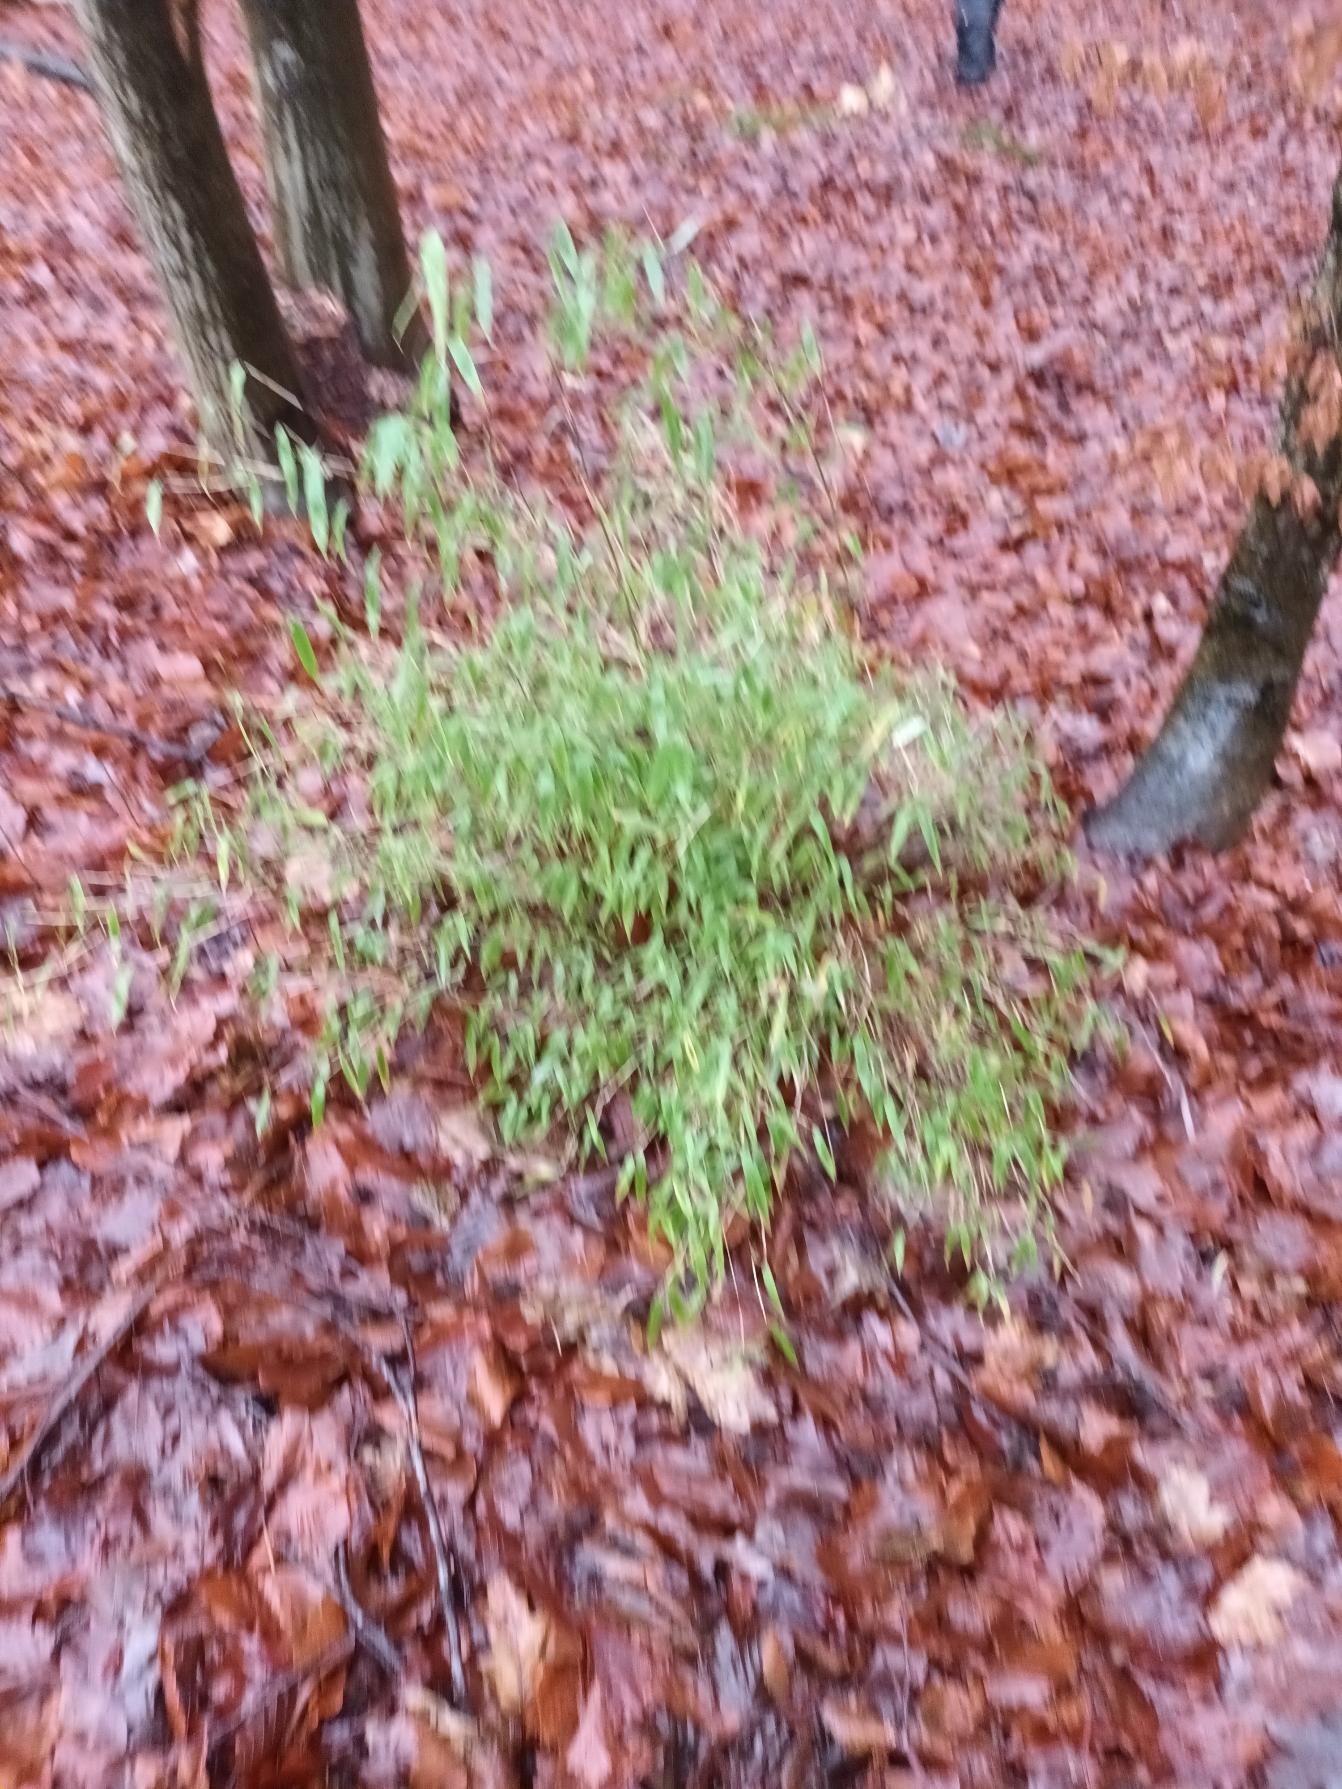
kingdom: Plantae
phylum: Tracheophyta
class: Liliopsida
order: Poales
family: Poaceae
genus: Fargesia
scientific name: Fargesia murielae
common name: Gul bambus
